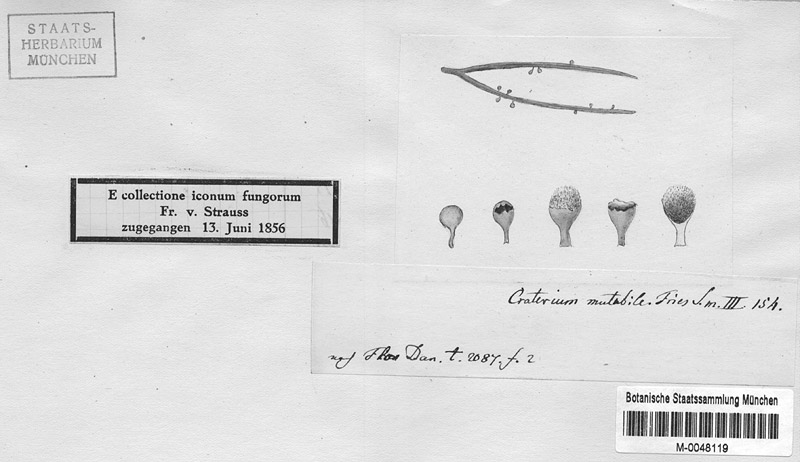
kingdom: Protozoa
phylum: Mycetozoa
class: Myxomycetes
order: Physarales
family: Physaraceae
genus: Craterium
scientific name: Craterium aureum
